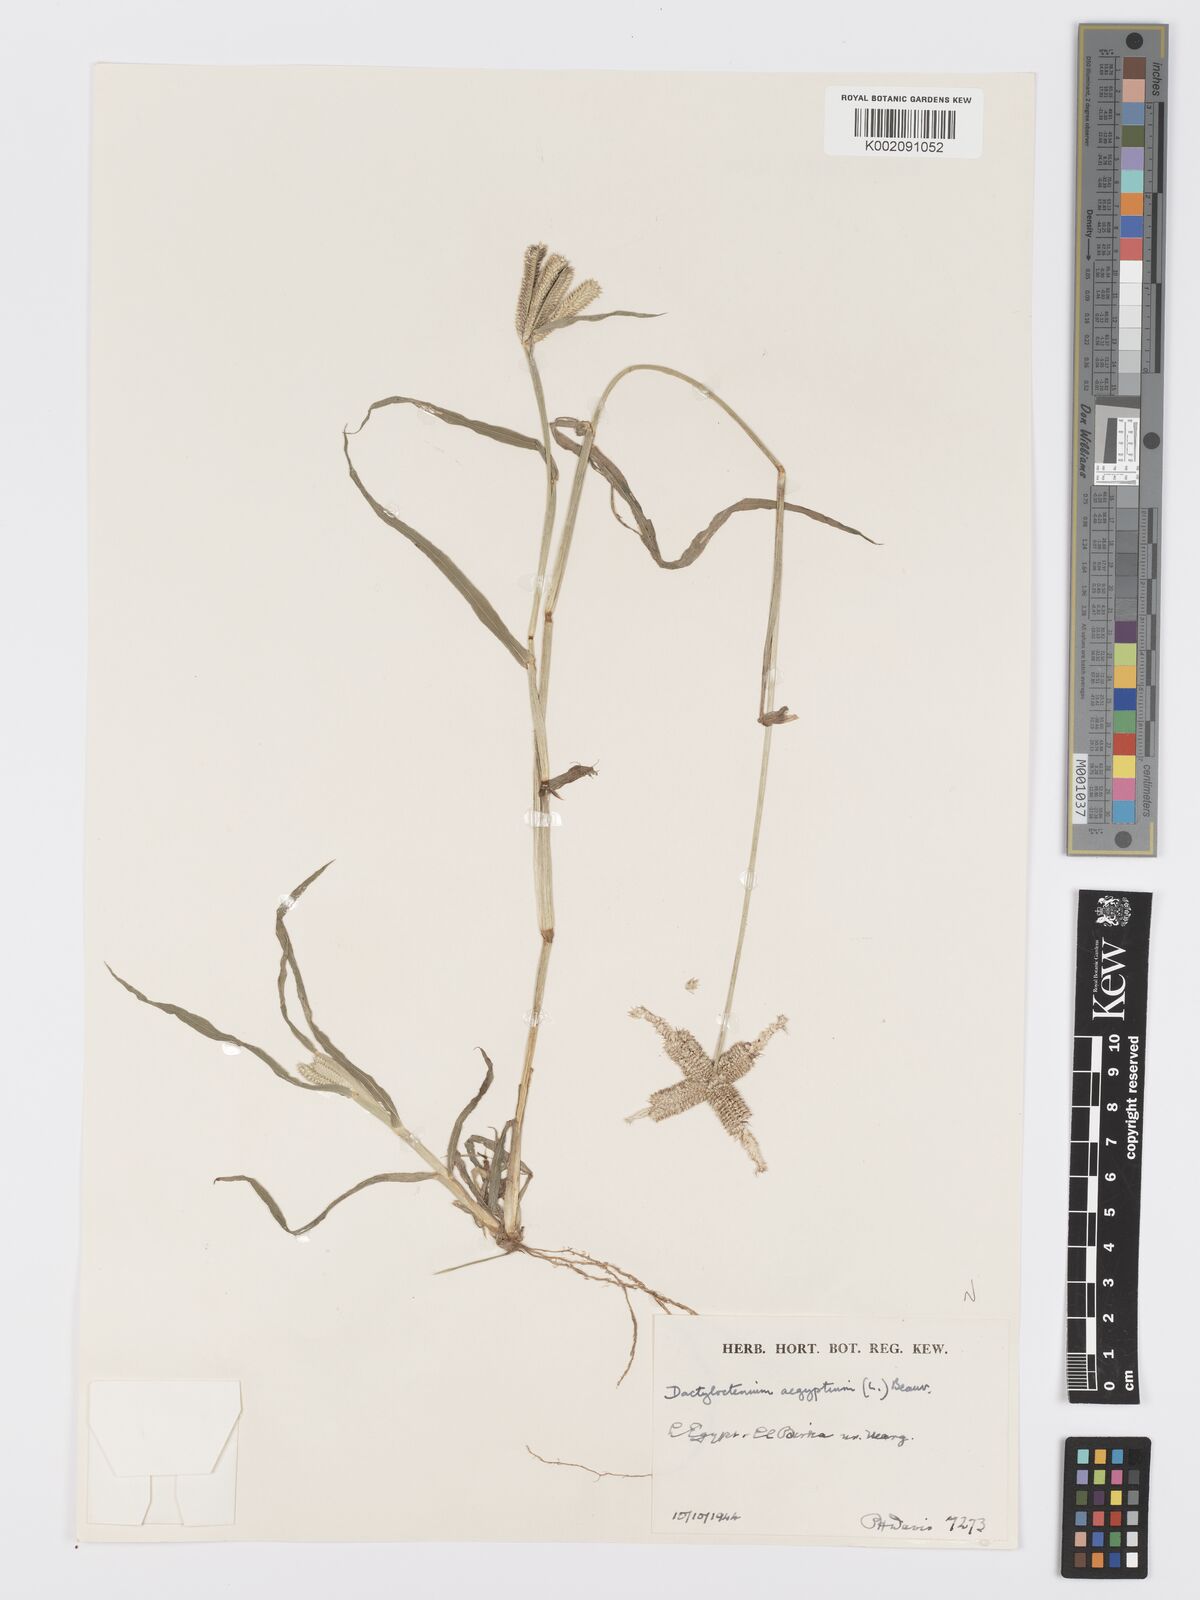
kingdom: Plantae
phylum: Tracheophyta
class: Liliopsida
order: Poales
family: Poaceae
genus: Dactyloctenium
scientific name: Dactyloctenium aegyptium
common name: Egyptian grass
